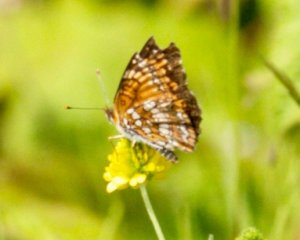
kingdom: Animalia
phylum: Arthropoda
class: Insecta
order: Lepidoptera
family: Nymphalidae
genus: Chlosyne
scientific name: Chlosyne harrisii
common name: Harris's Checkerspot
